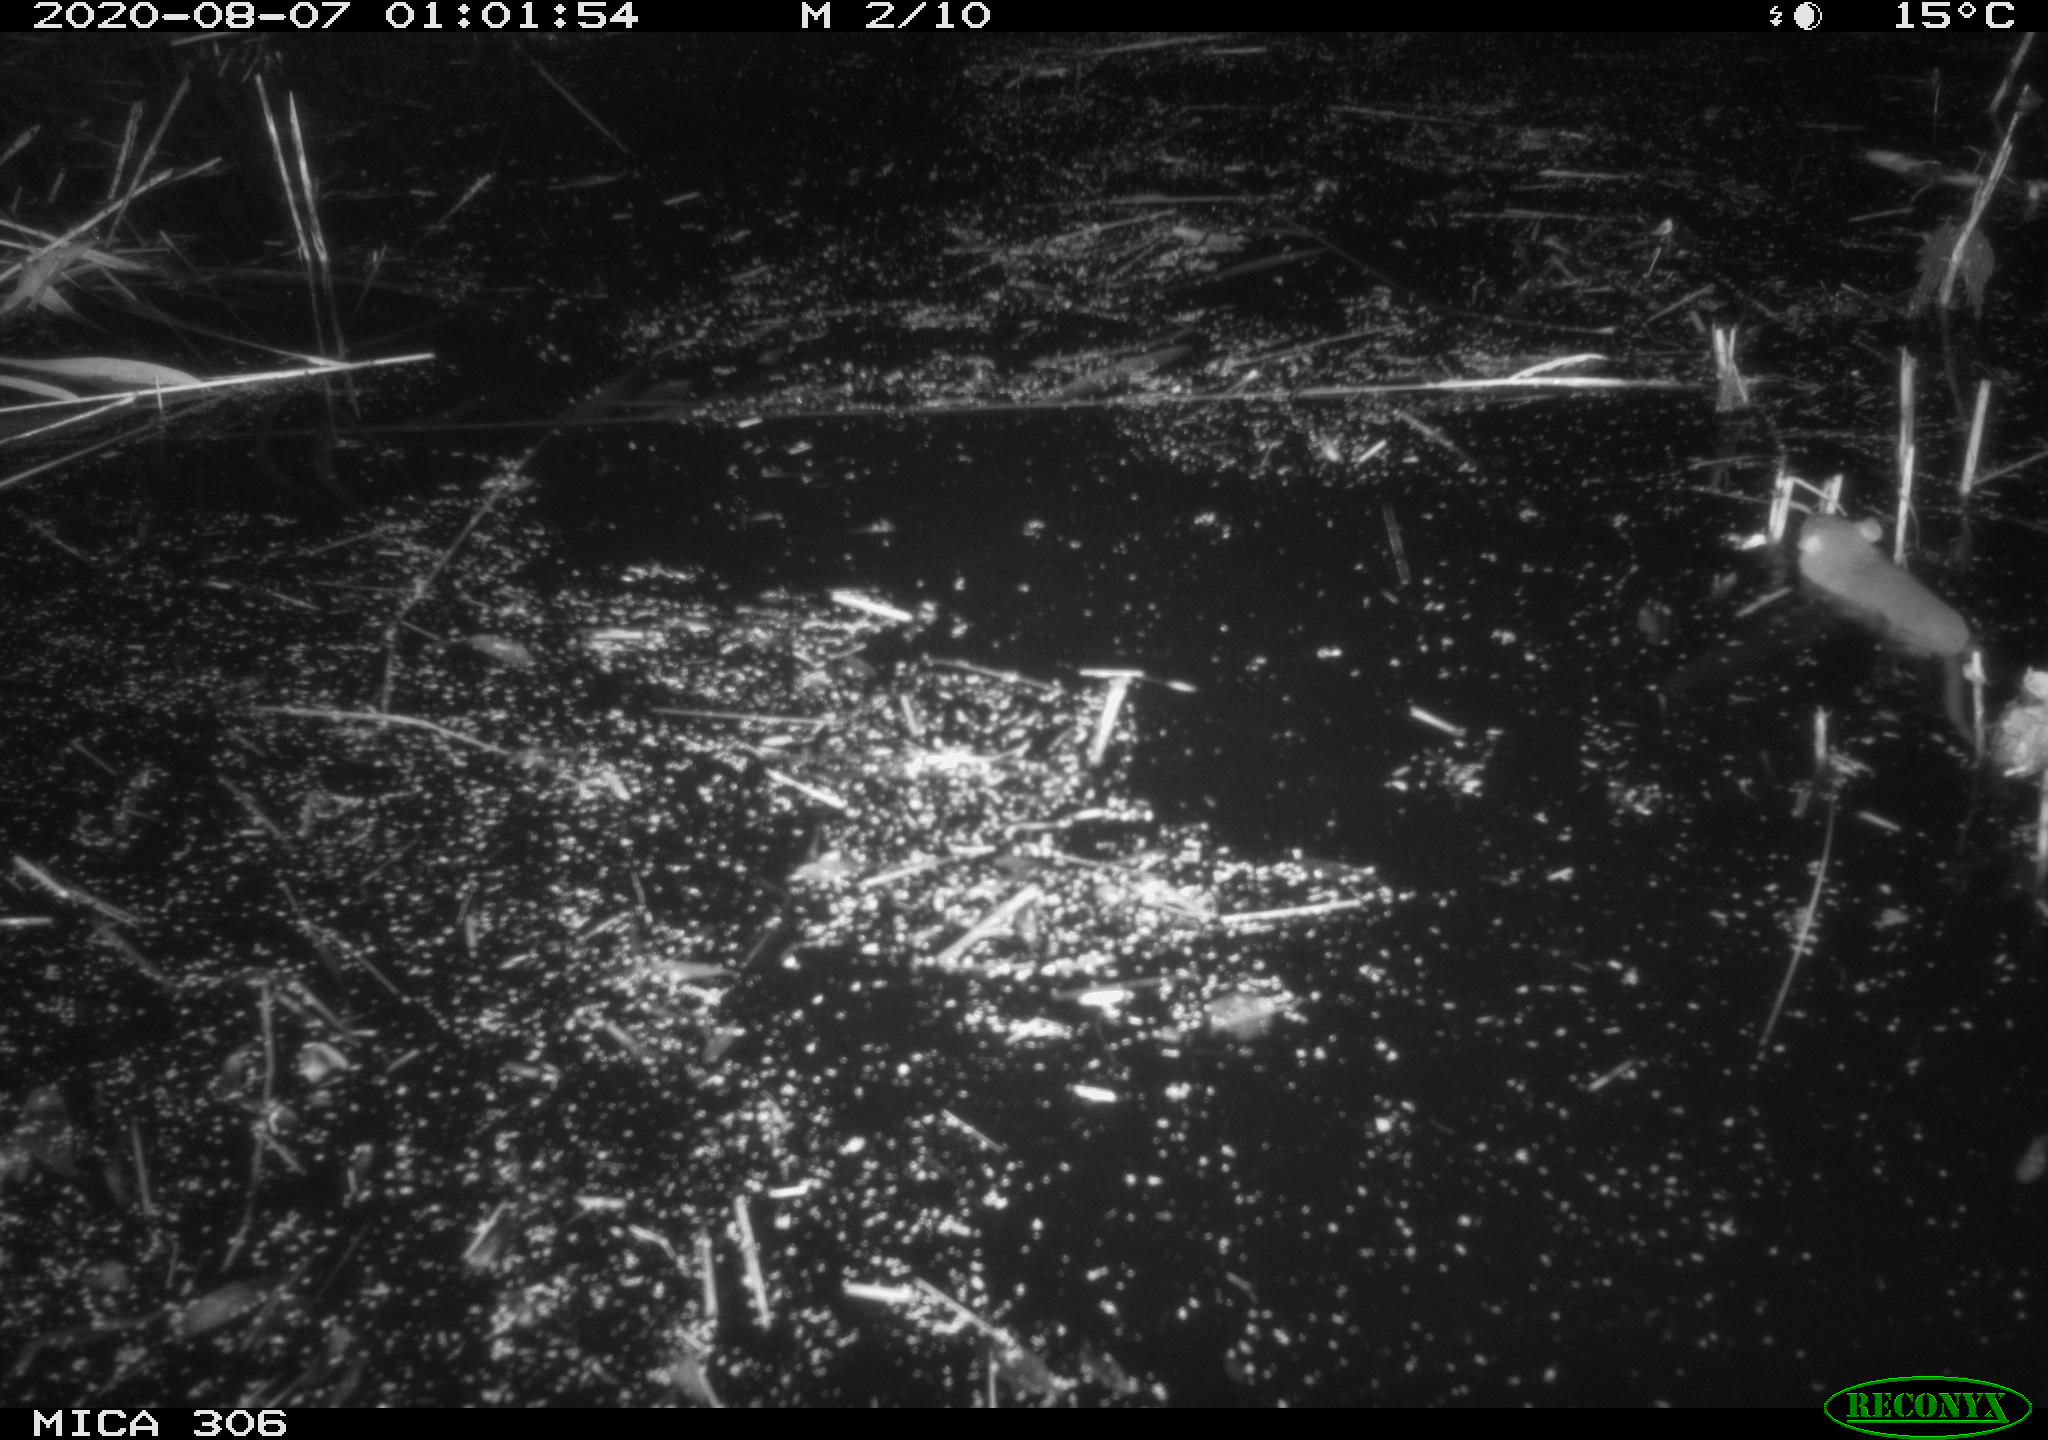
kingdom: Animalia
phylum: Chordata
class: Mammalia
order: Rodentia
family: Muridae
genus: Rattus
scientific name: Rattus norvegicus
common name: Brown rat
